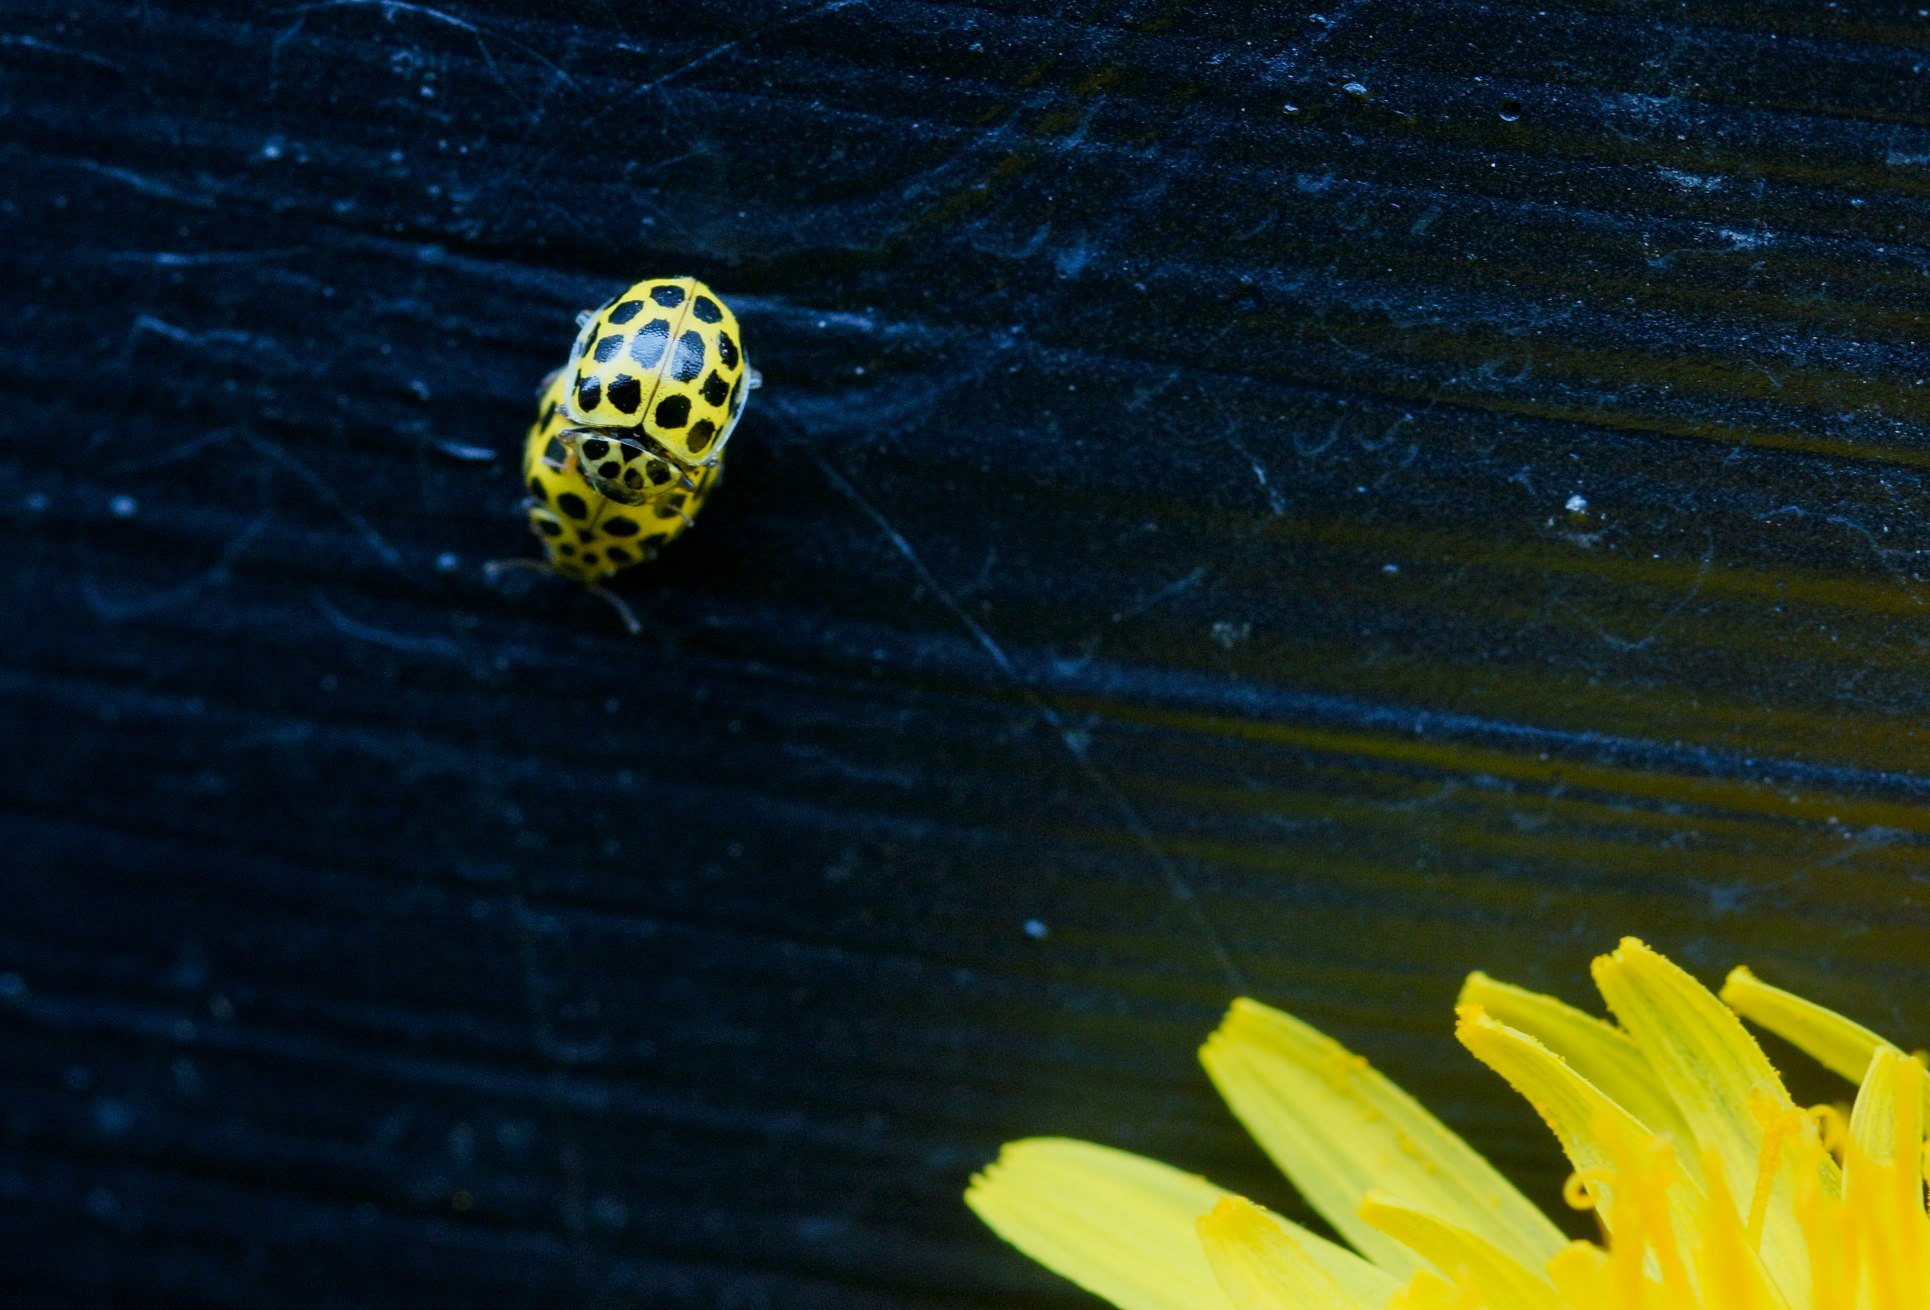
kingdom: Animalia
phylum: Arthropoda
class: Insecta
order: Coleoptera
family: Coccinellidae
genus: Psyllobora
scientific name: Psyllobora vigintiduopunctata
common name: Toogtyveplettet mariehøne
